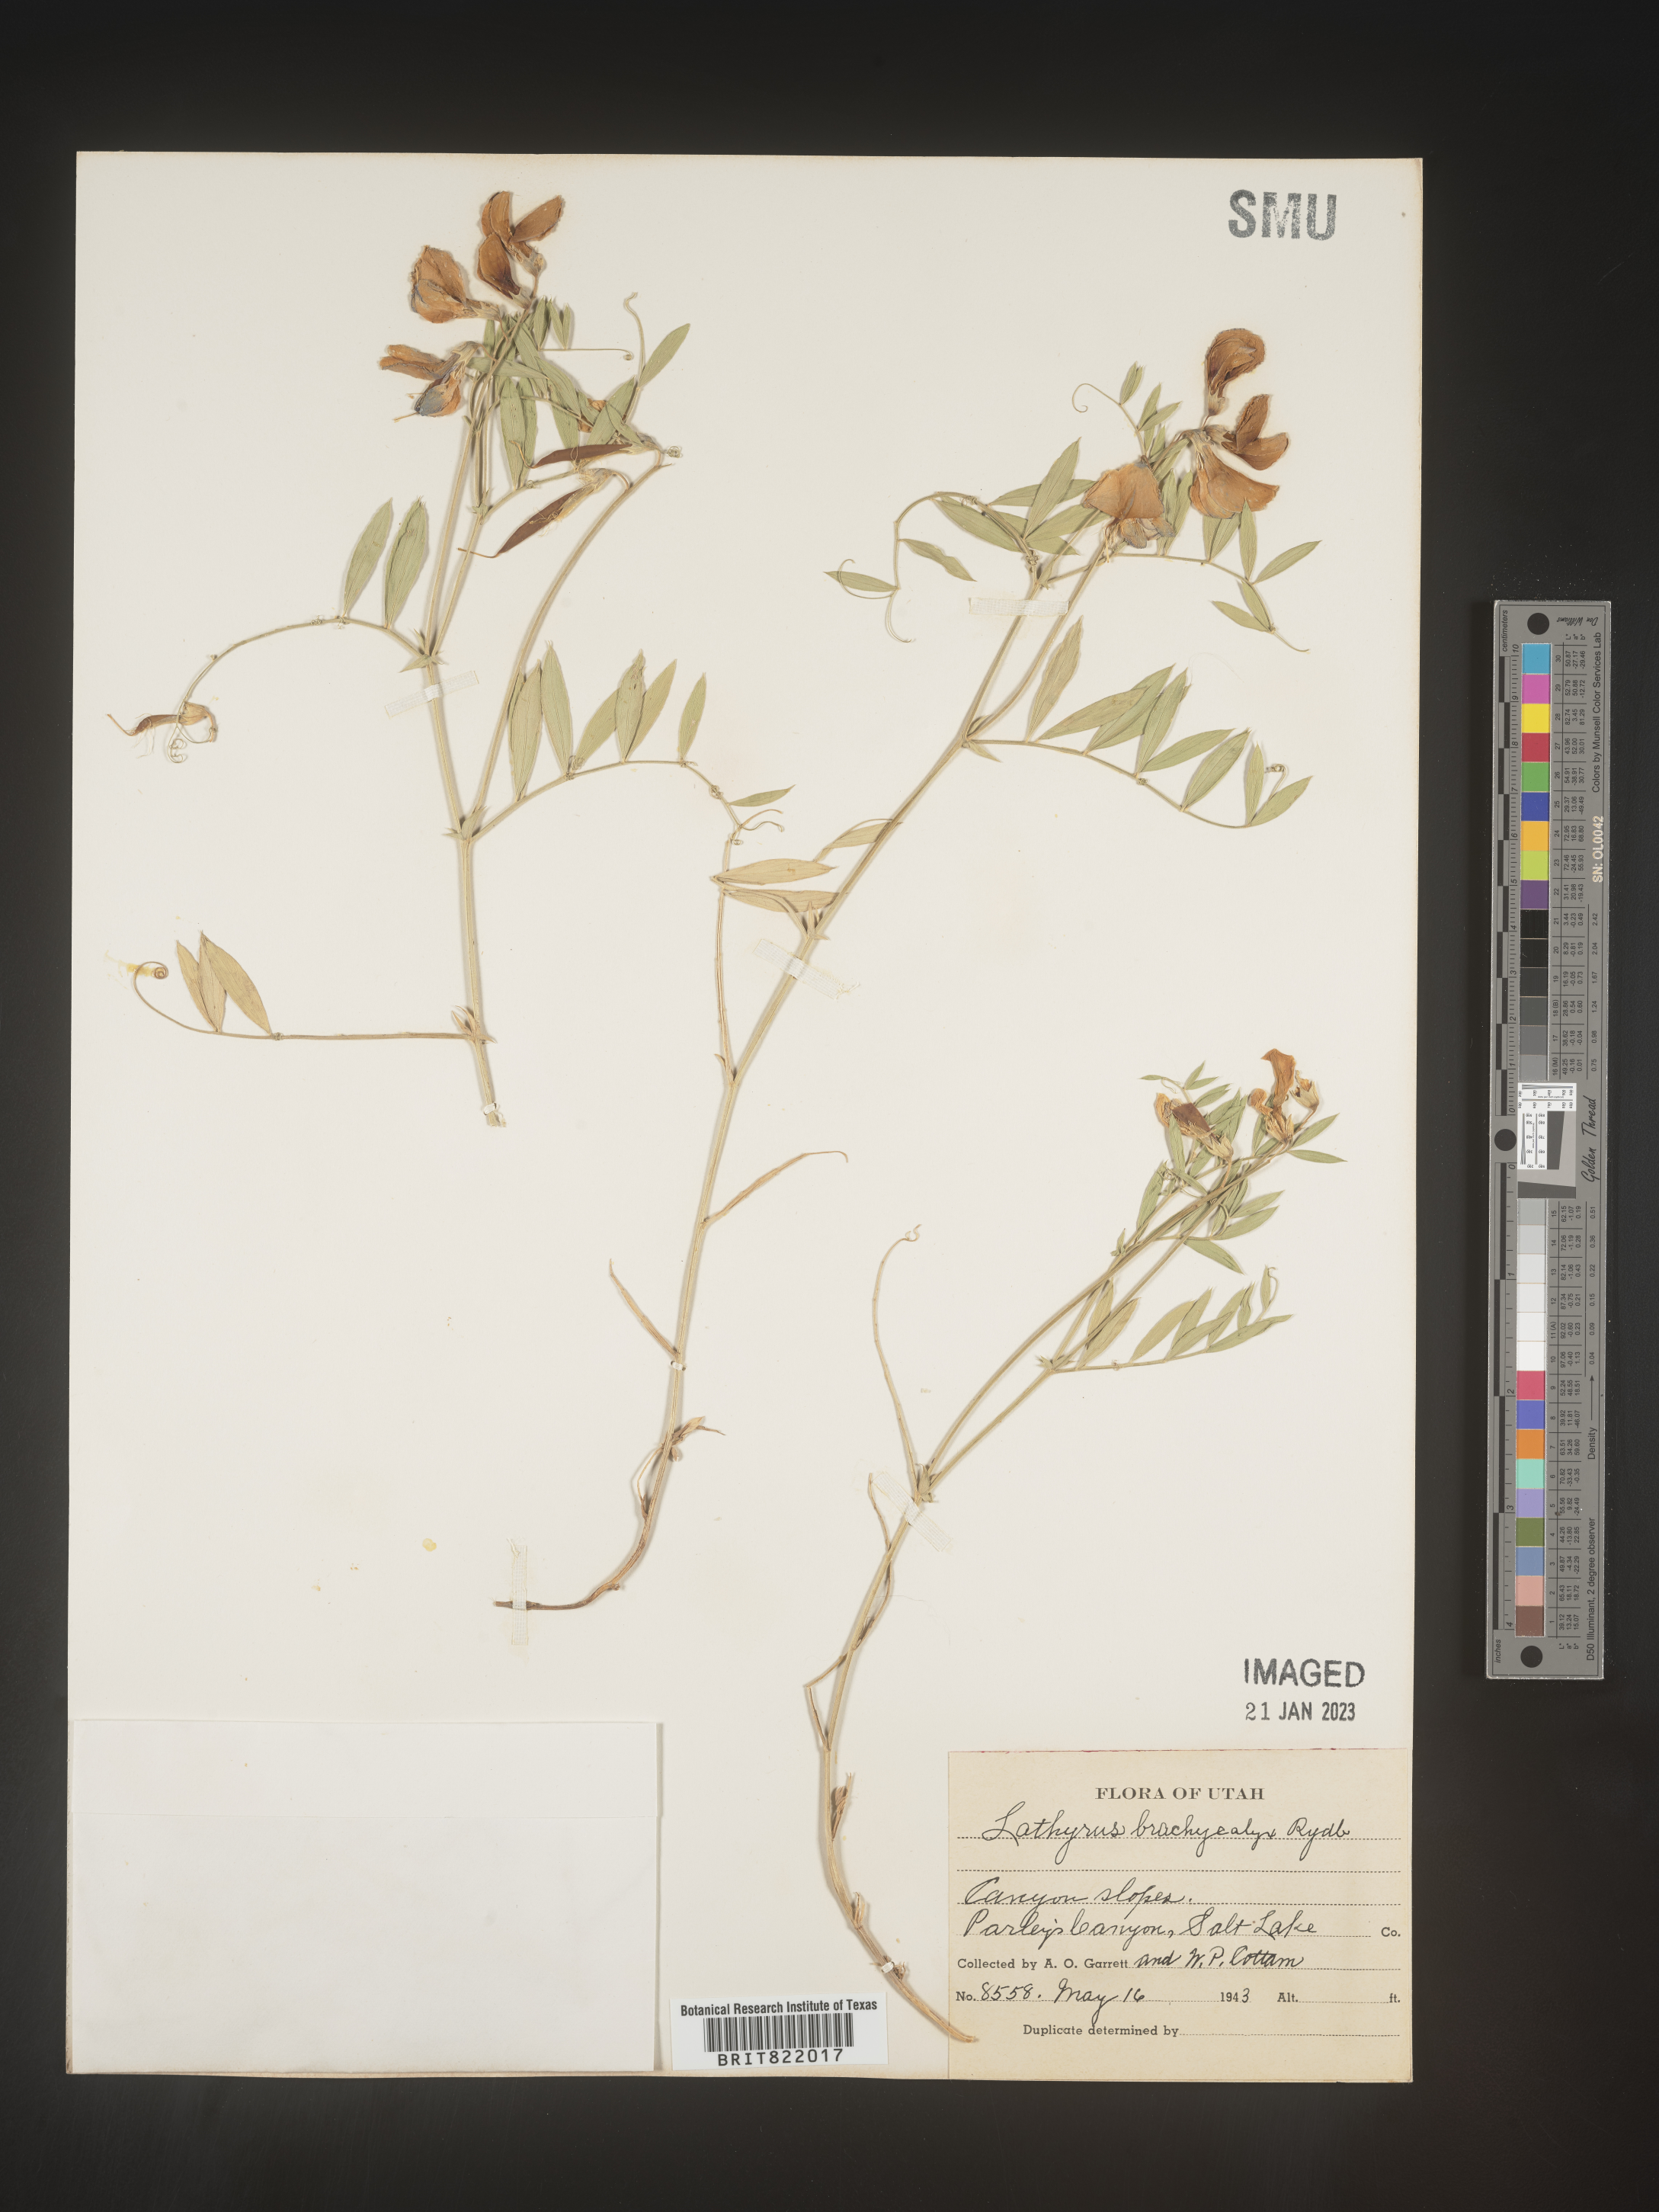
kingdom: Plantae
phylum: Tracheophyta
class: Magnoliopsida
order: Fabales
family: Fabaceae
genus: Lathyrus
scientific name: Lathyrus
